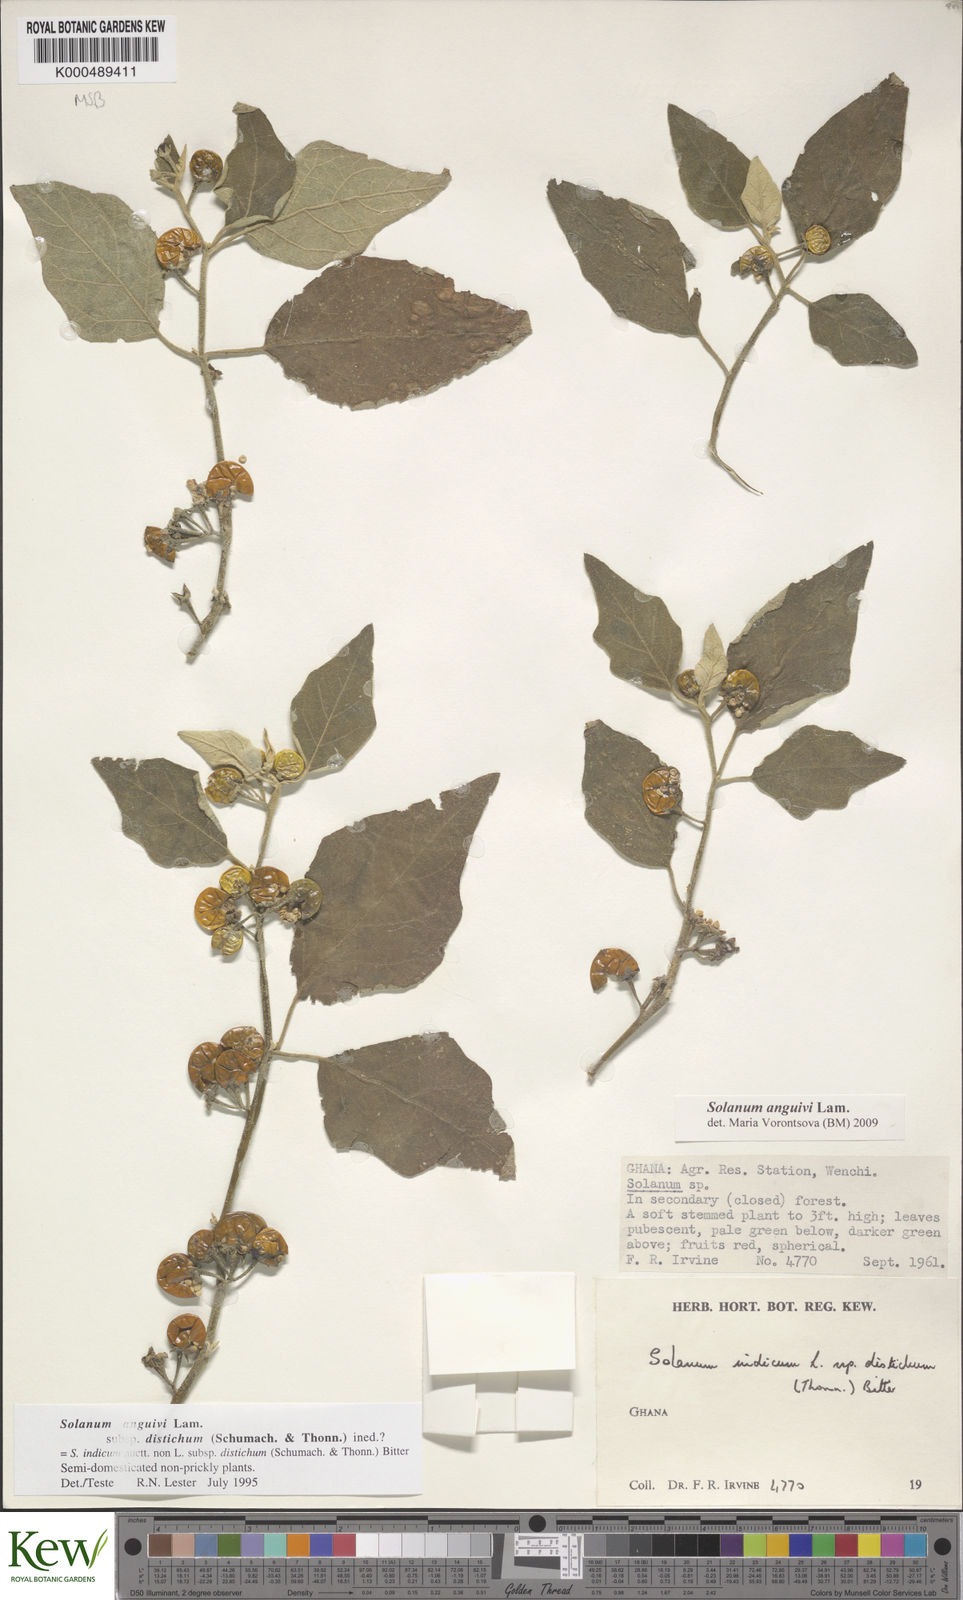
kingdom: Plantae
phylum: Tracheophyta
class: Magnoliopsida
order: Solanales
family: Solanaceae
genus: Solanum
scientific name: Solanum anguivi
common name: Forest bitterberry
